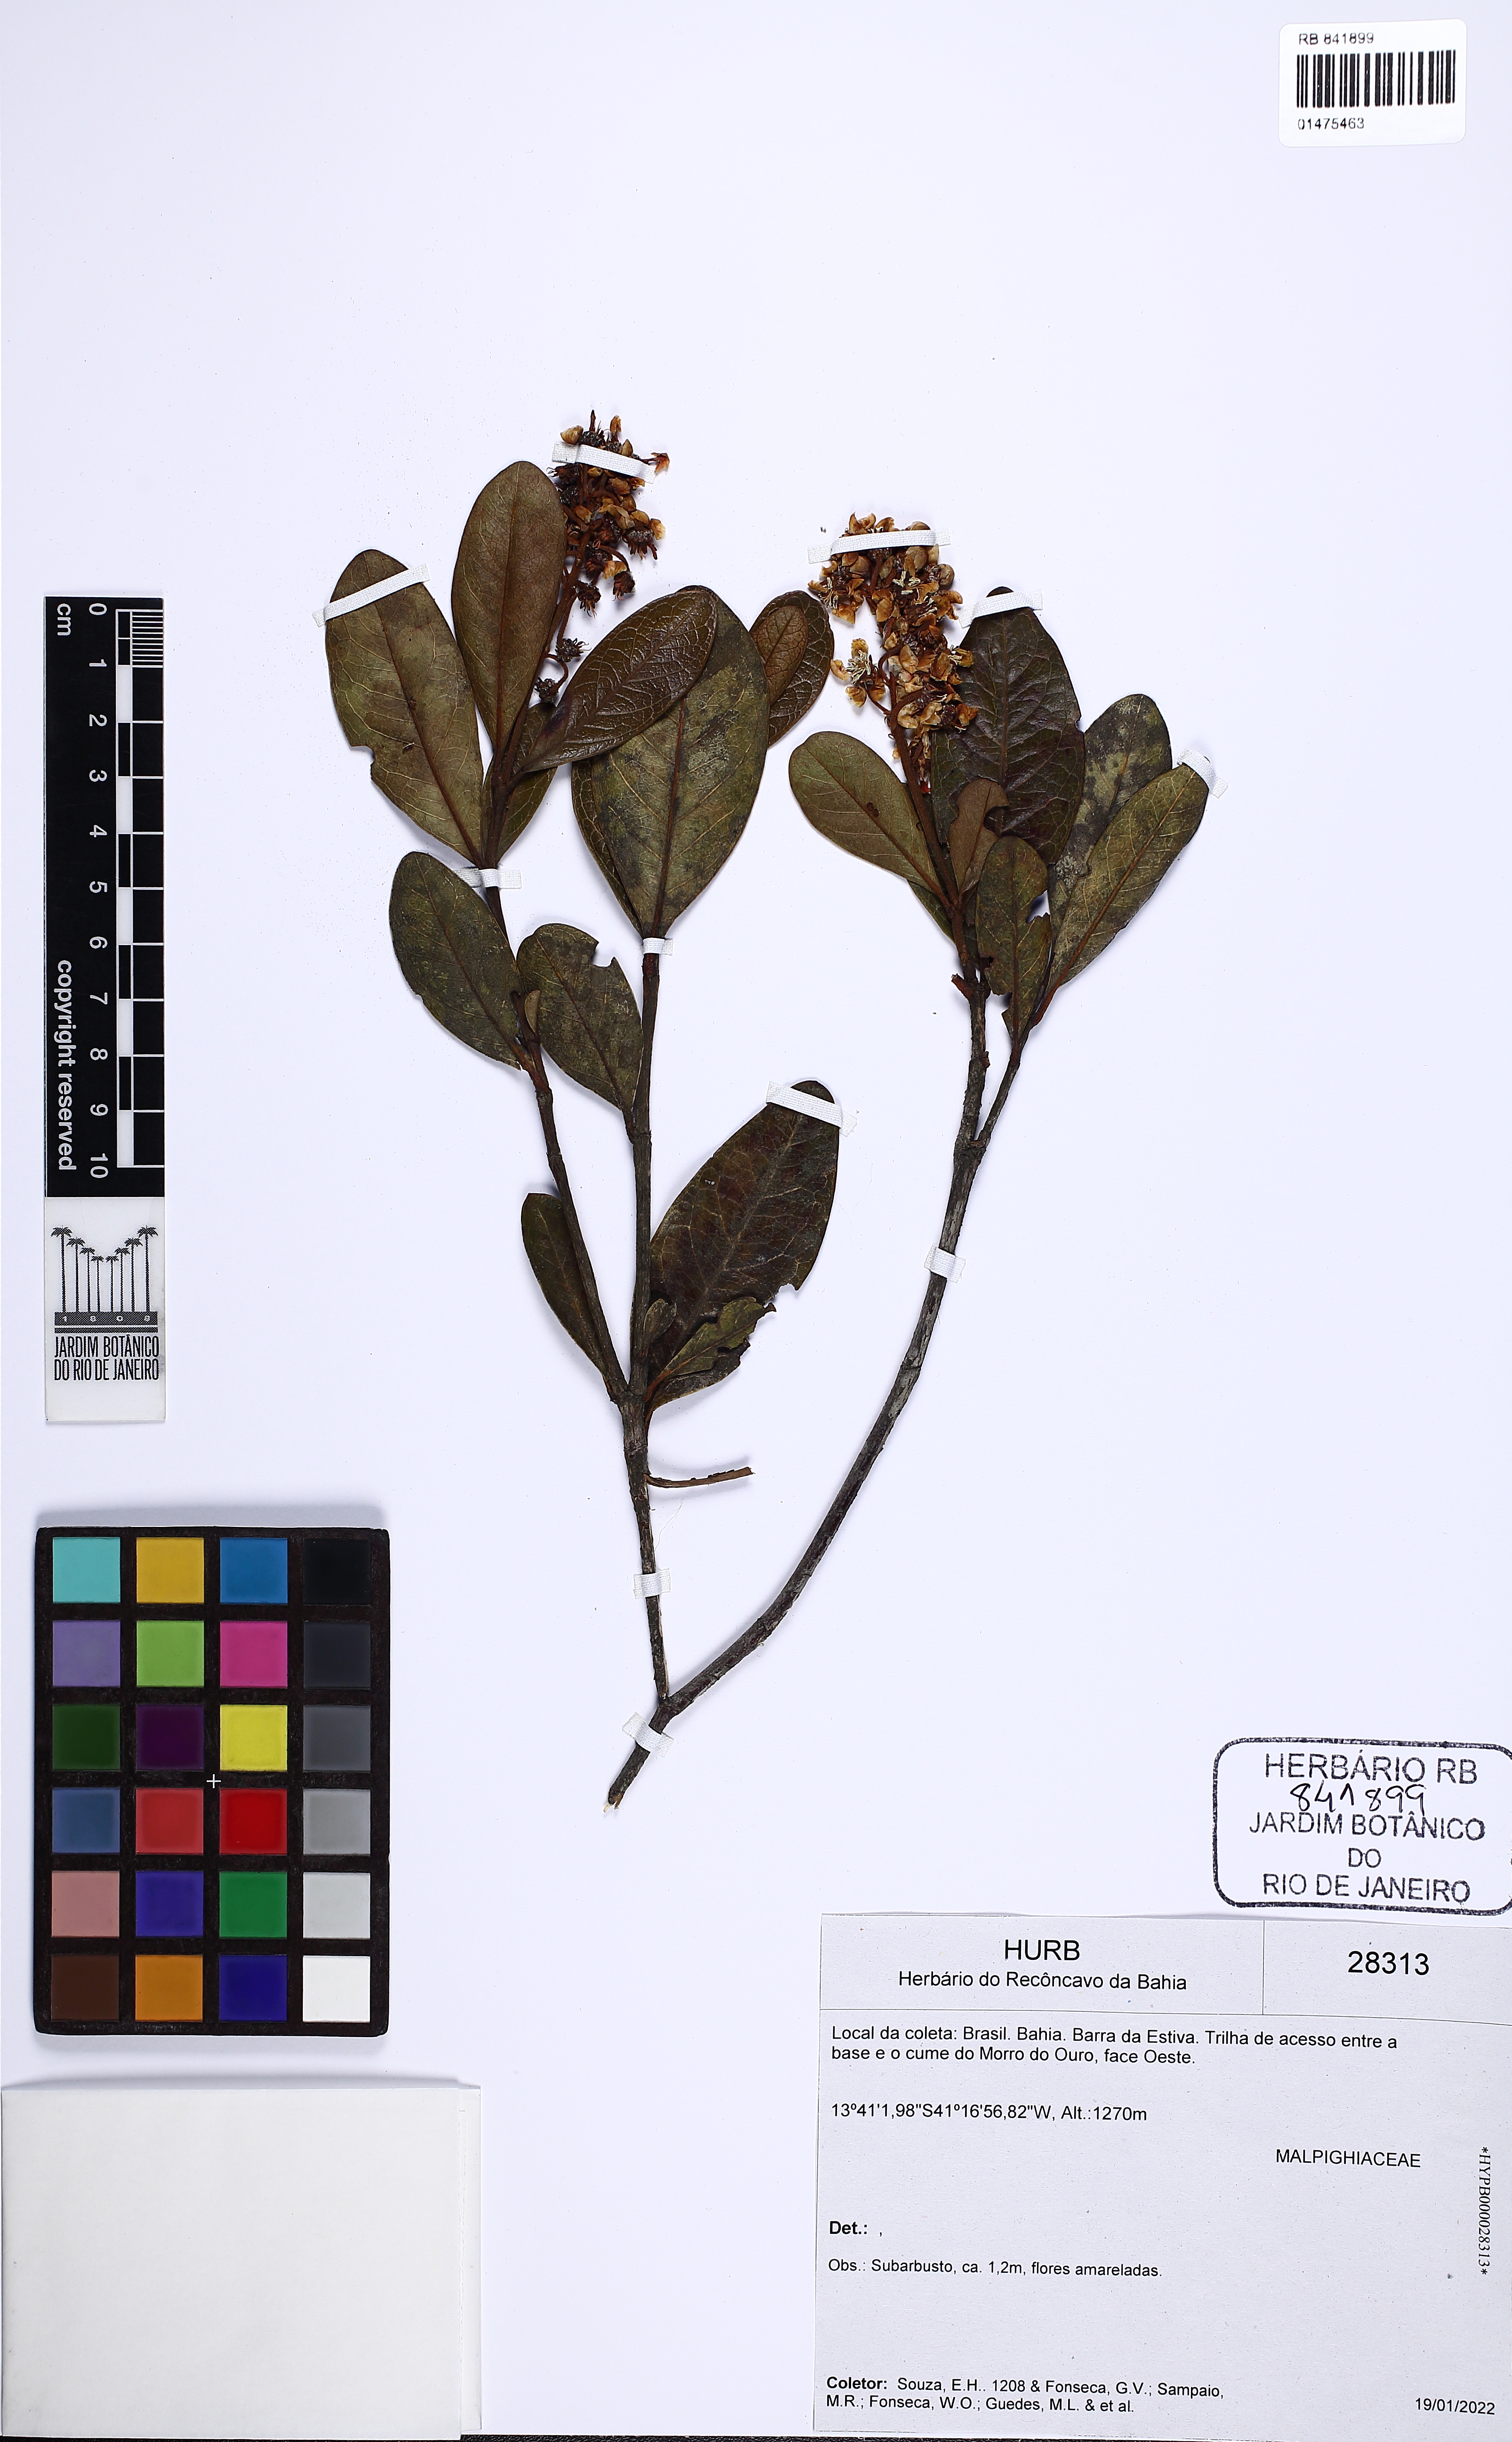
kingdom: Plantae
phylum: Tracheophyta
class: Magnoliopsida
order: Malpighiales
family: Malpighiaceae
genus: Byrsonima
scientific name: Byrsonima
